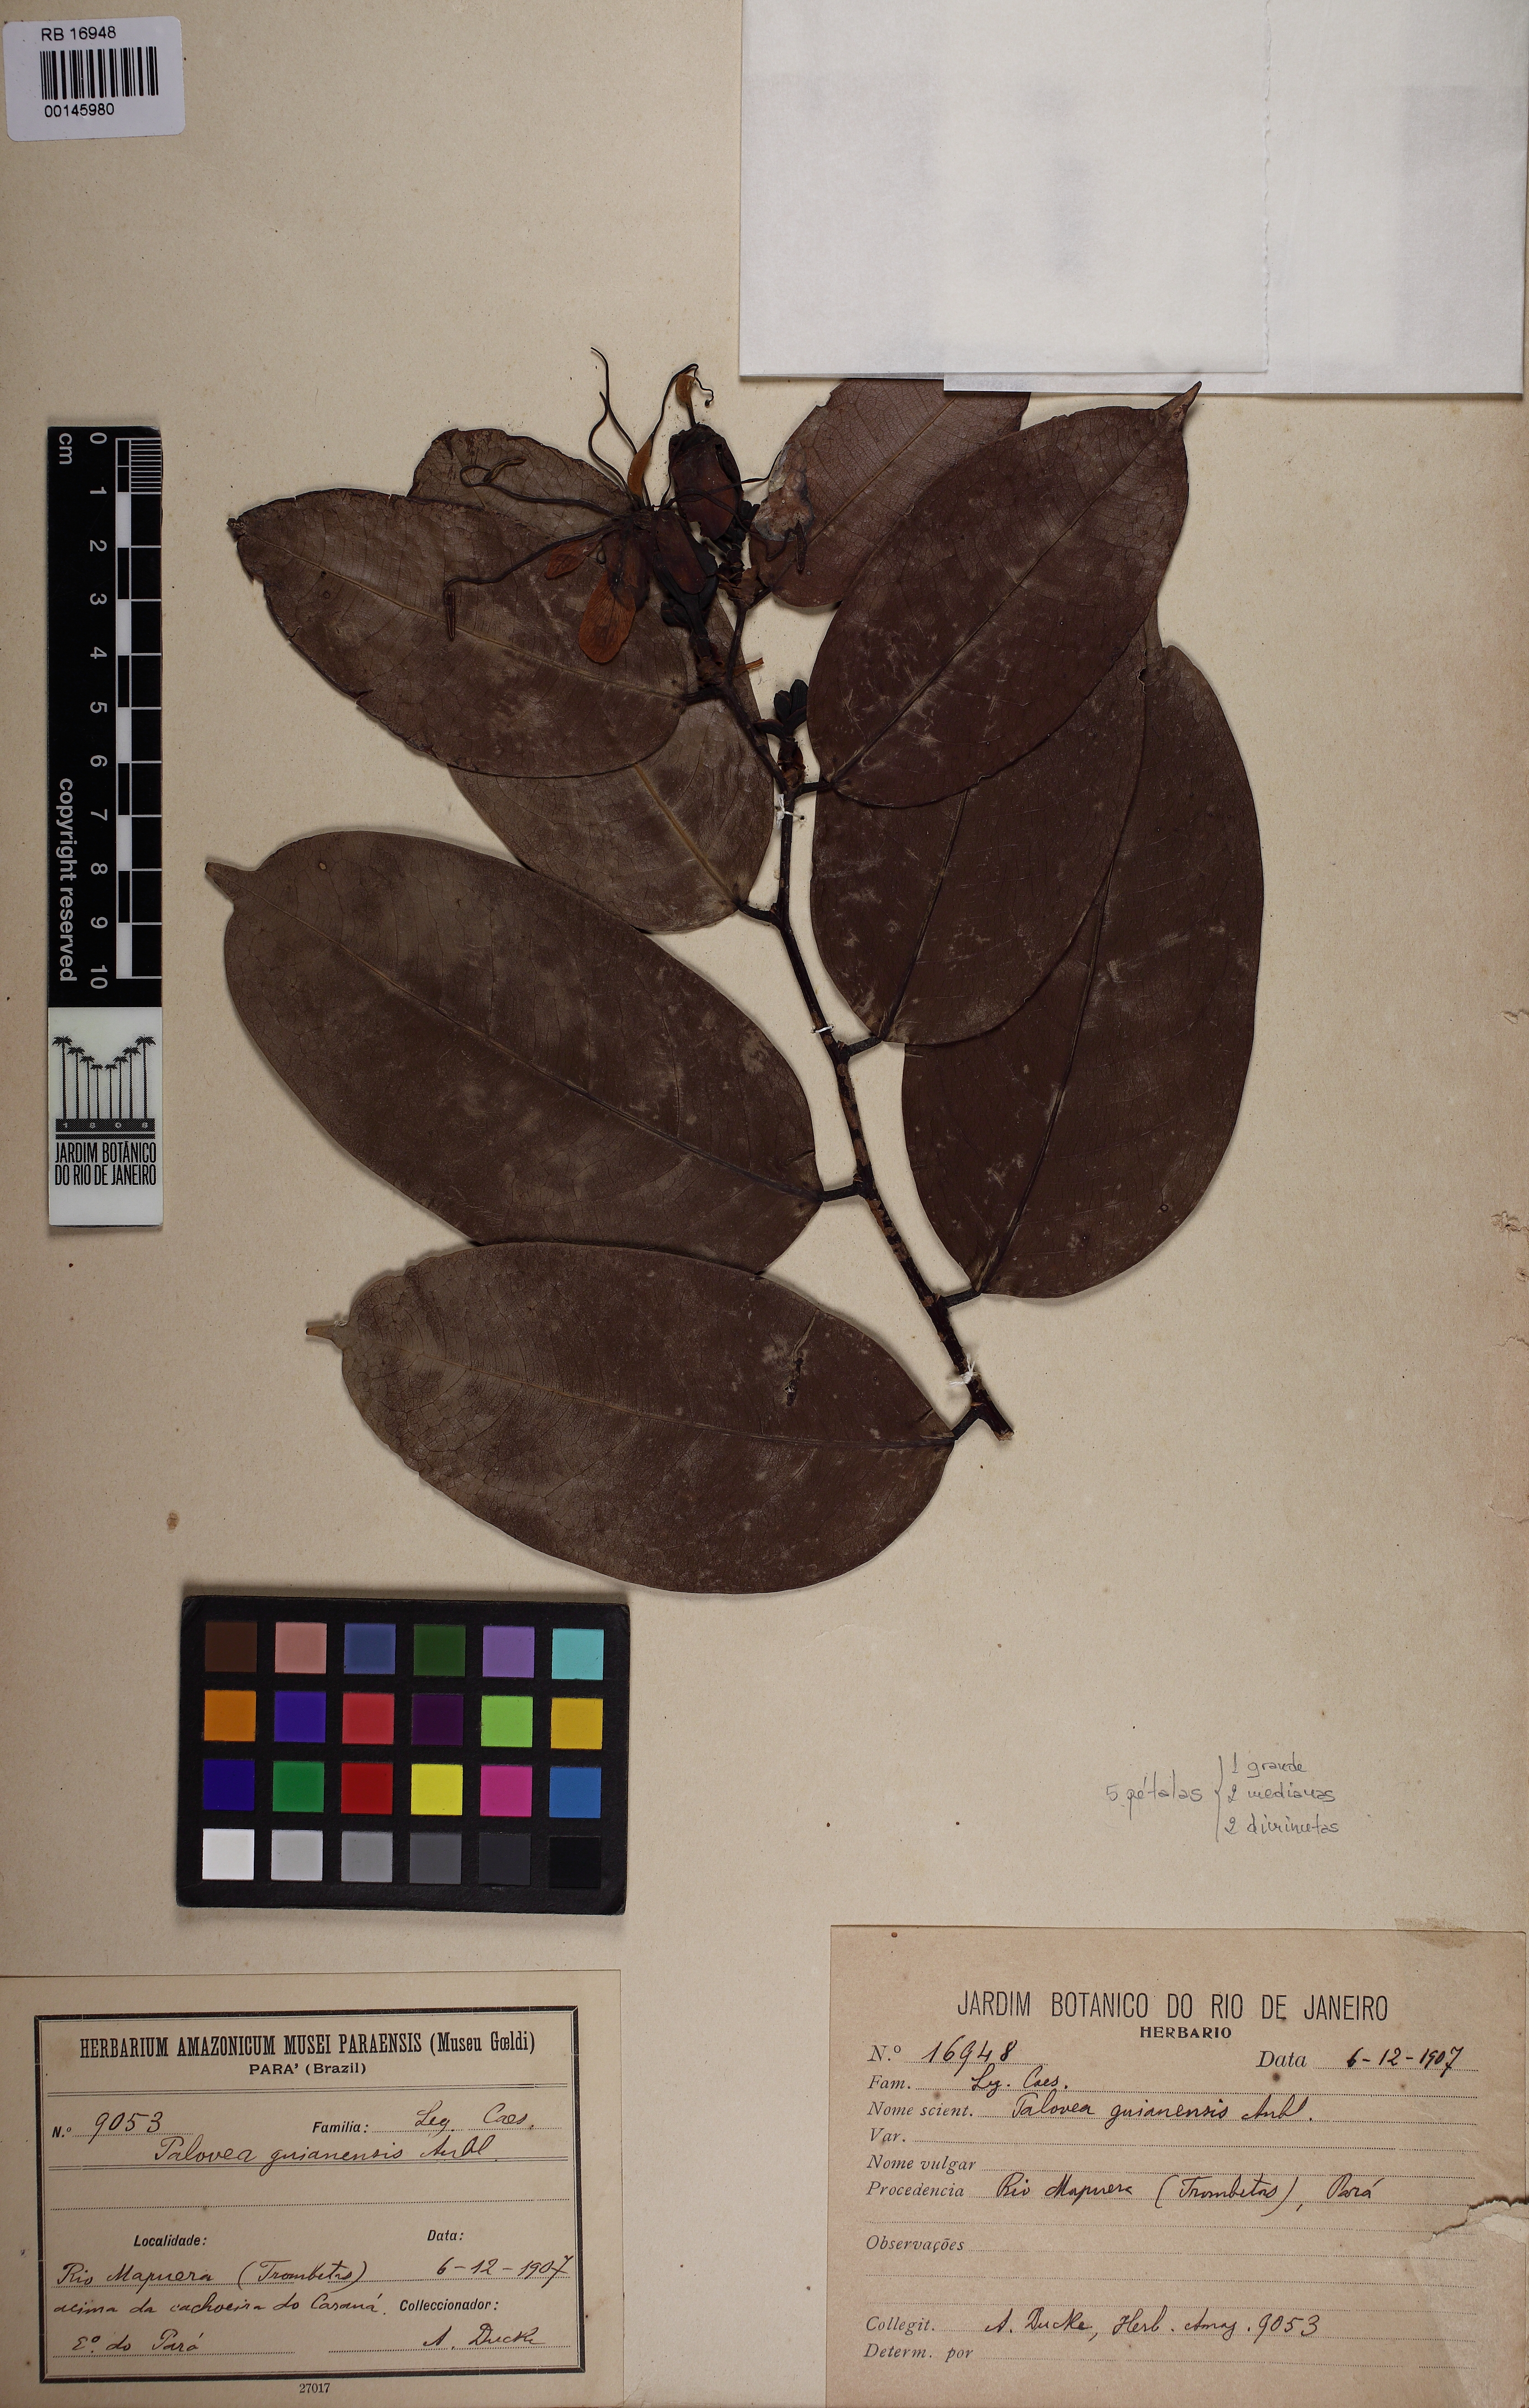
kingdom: Plantae
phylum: Tracheophyta
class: Magnoliopsida
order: Fabales
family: Fabaceae
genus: Paloue
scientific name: Paloue guianensis
